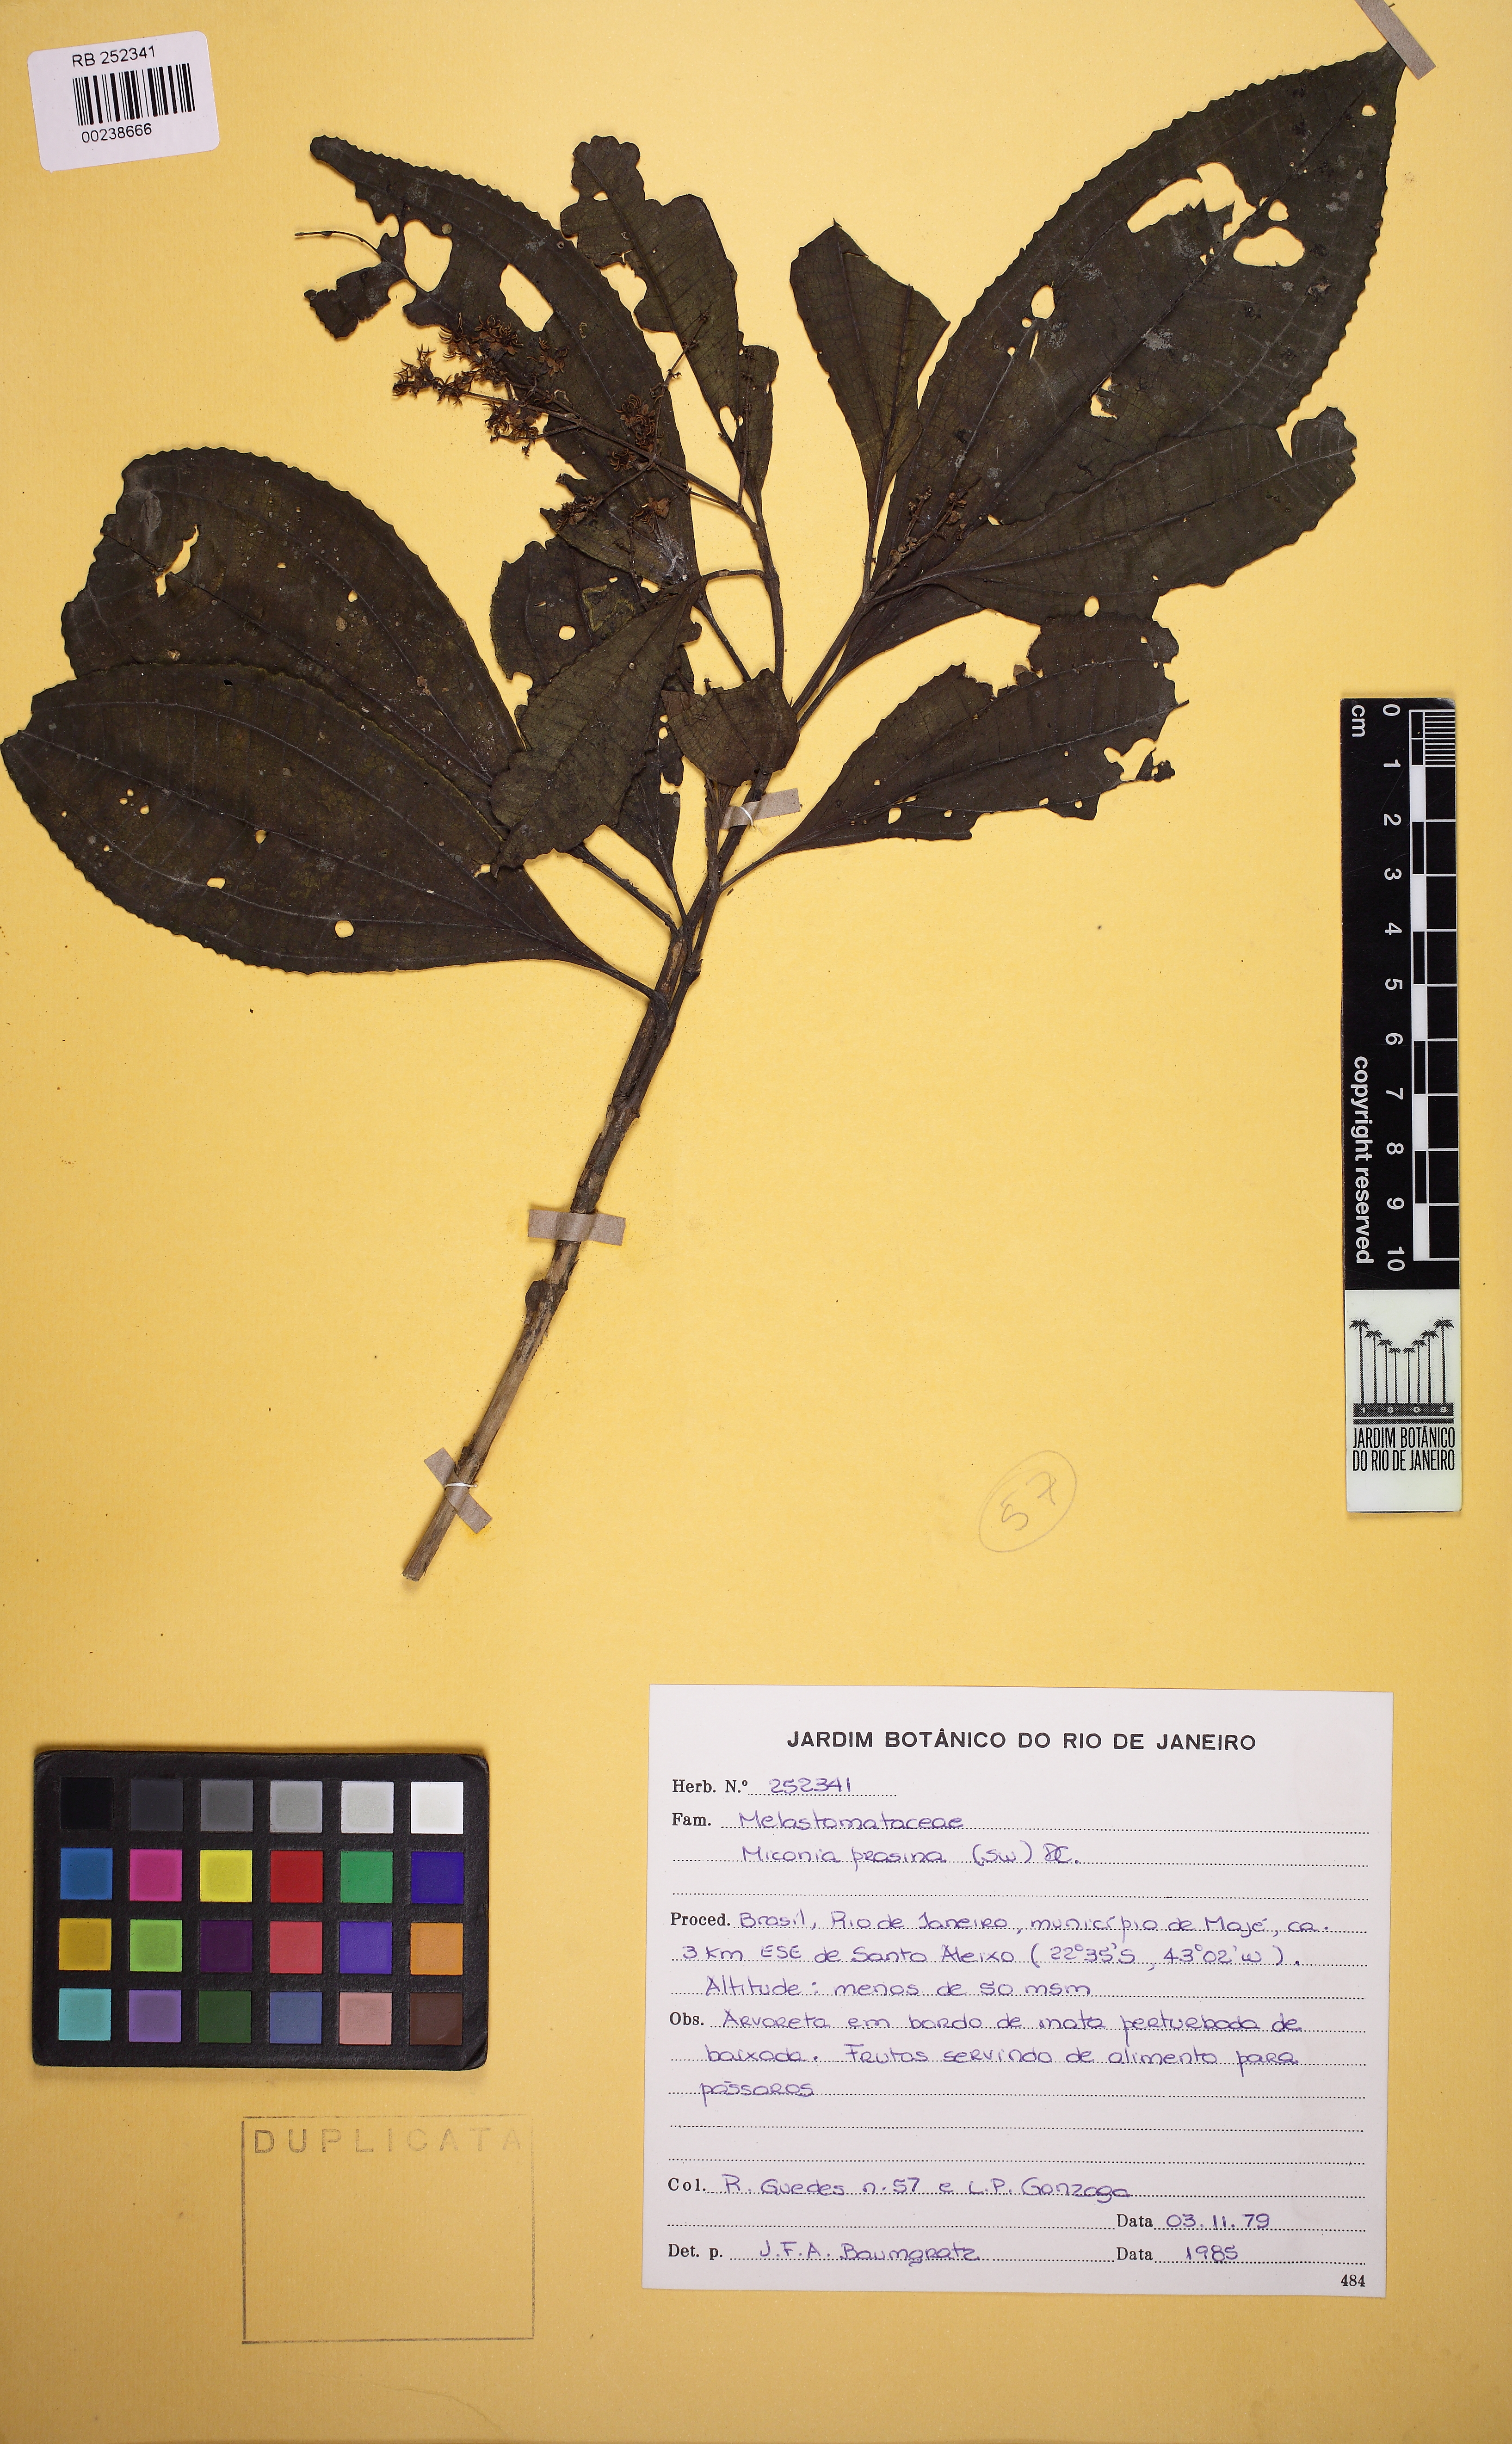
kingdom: Plantae
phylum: Tracheophyta
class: Magnoliopsida
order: Myrtales
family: Melastomataceae
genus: Miconia
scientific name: Miconia prasina
